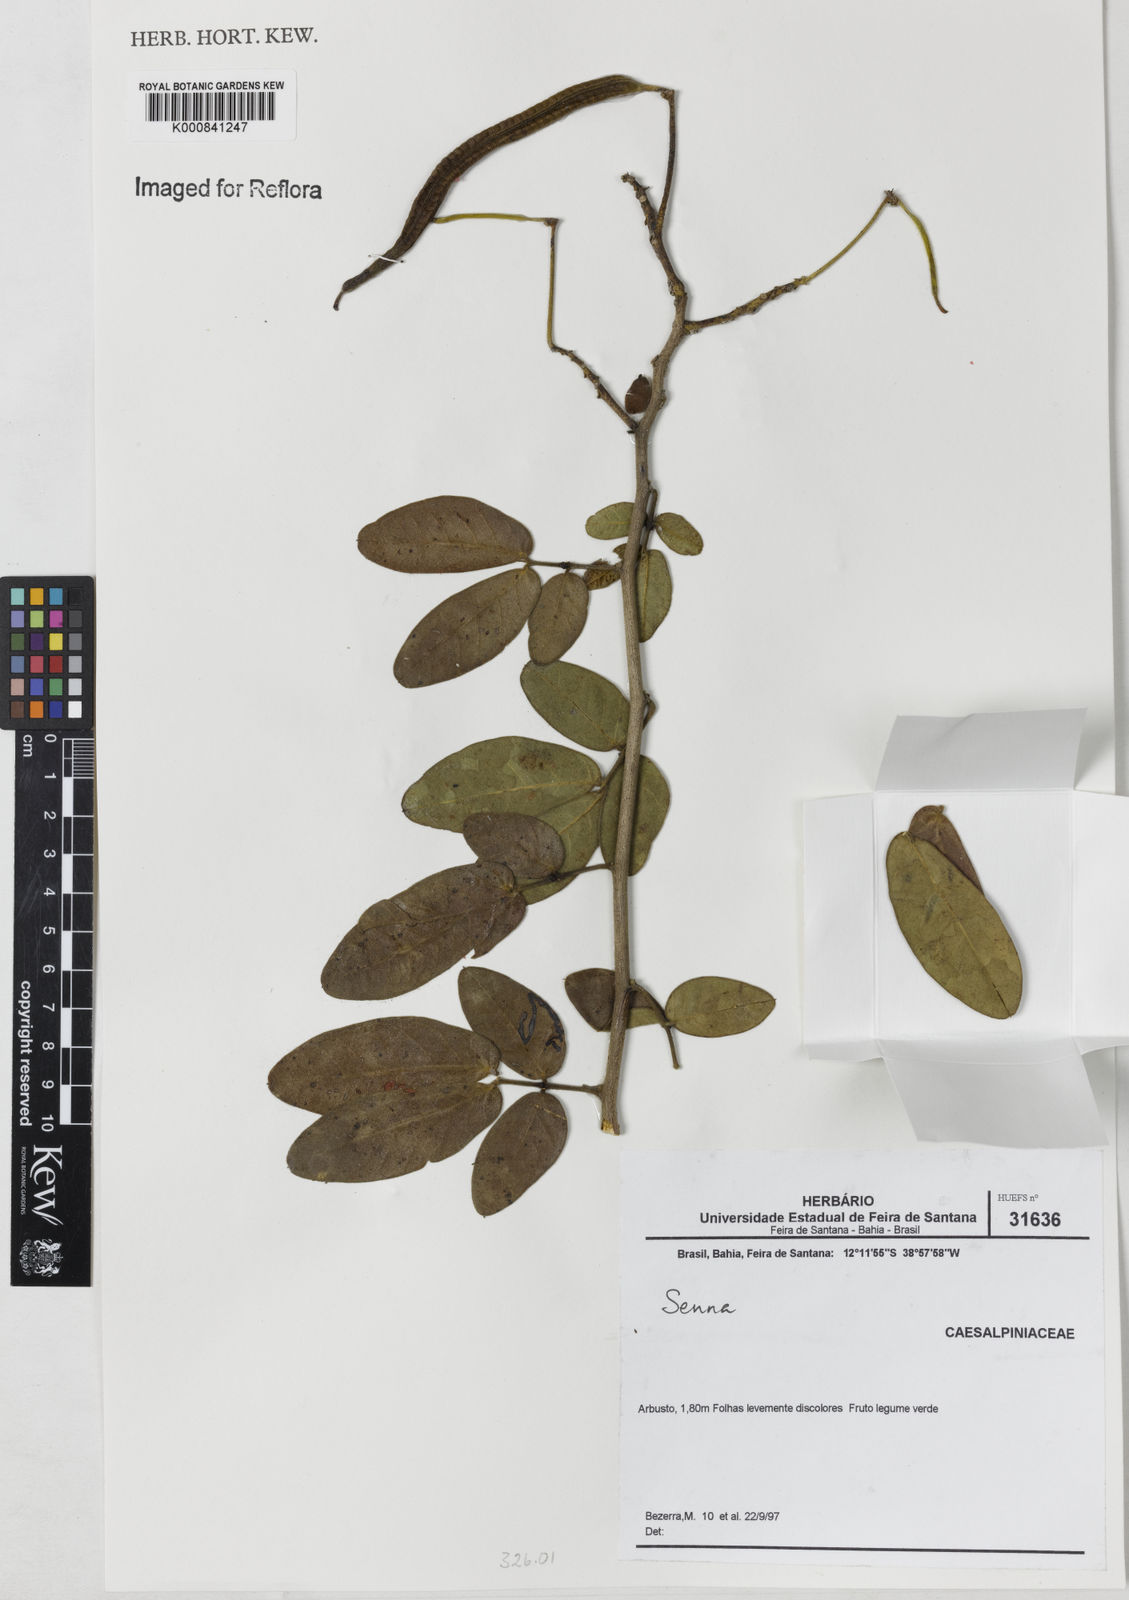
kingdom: Plantae
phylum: Tracheophyta
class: Magnoliopsida
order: Fabales
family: Fabaceae
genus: Senna
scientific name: Senna macranthera
